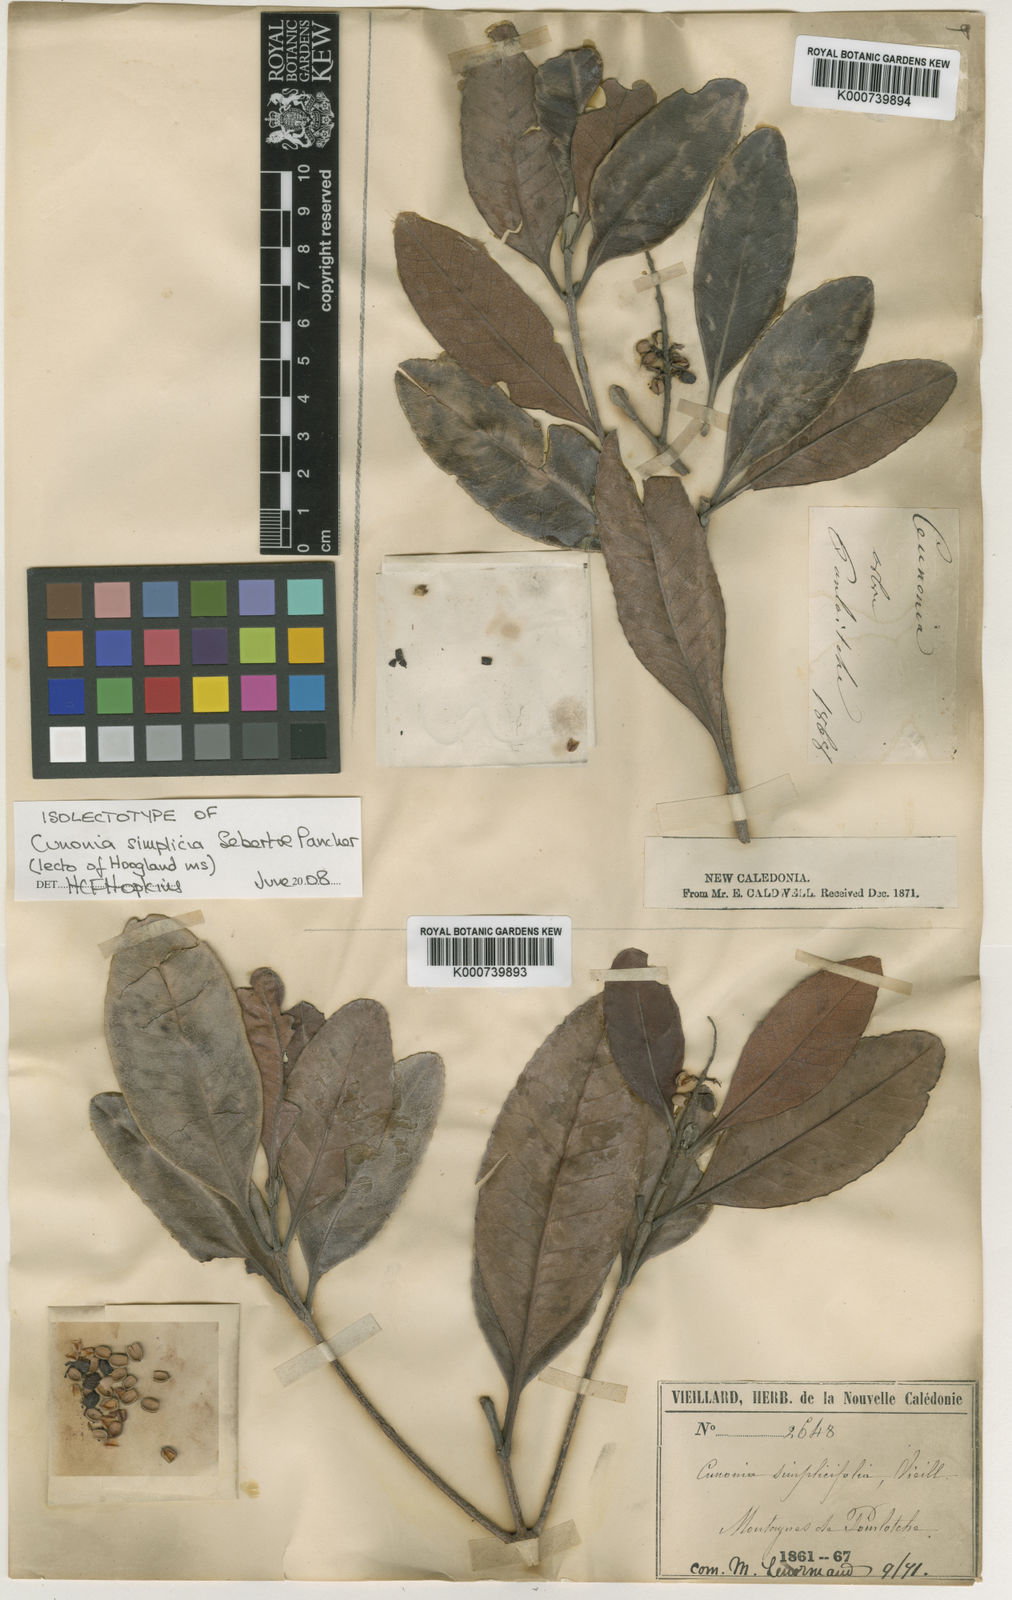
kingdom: Plantae
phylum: Tracheophyta
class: Magnoliopsida
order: Oxalidales
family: Cunoniaceae
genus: Cunonia
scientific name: Cunonia balansae
